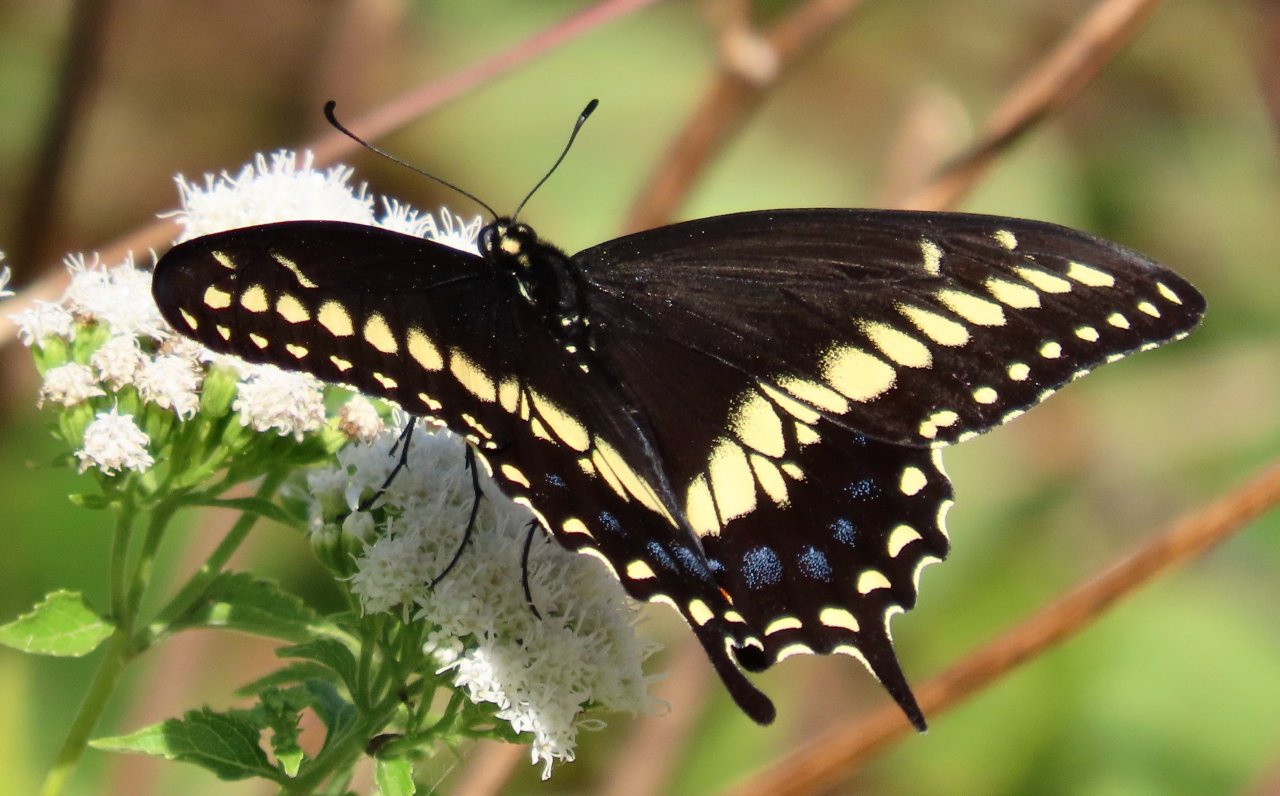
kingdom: Animalia
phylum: Arthropoda
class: Insecta
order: Lepidoptera
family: Papilionidae
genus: Papilio
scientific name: Papilio polyxenes
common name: Black Swallowtail
